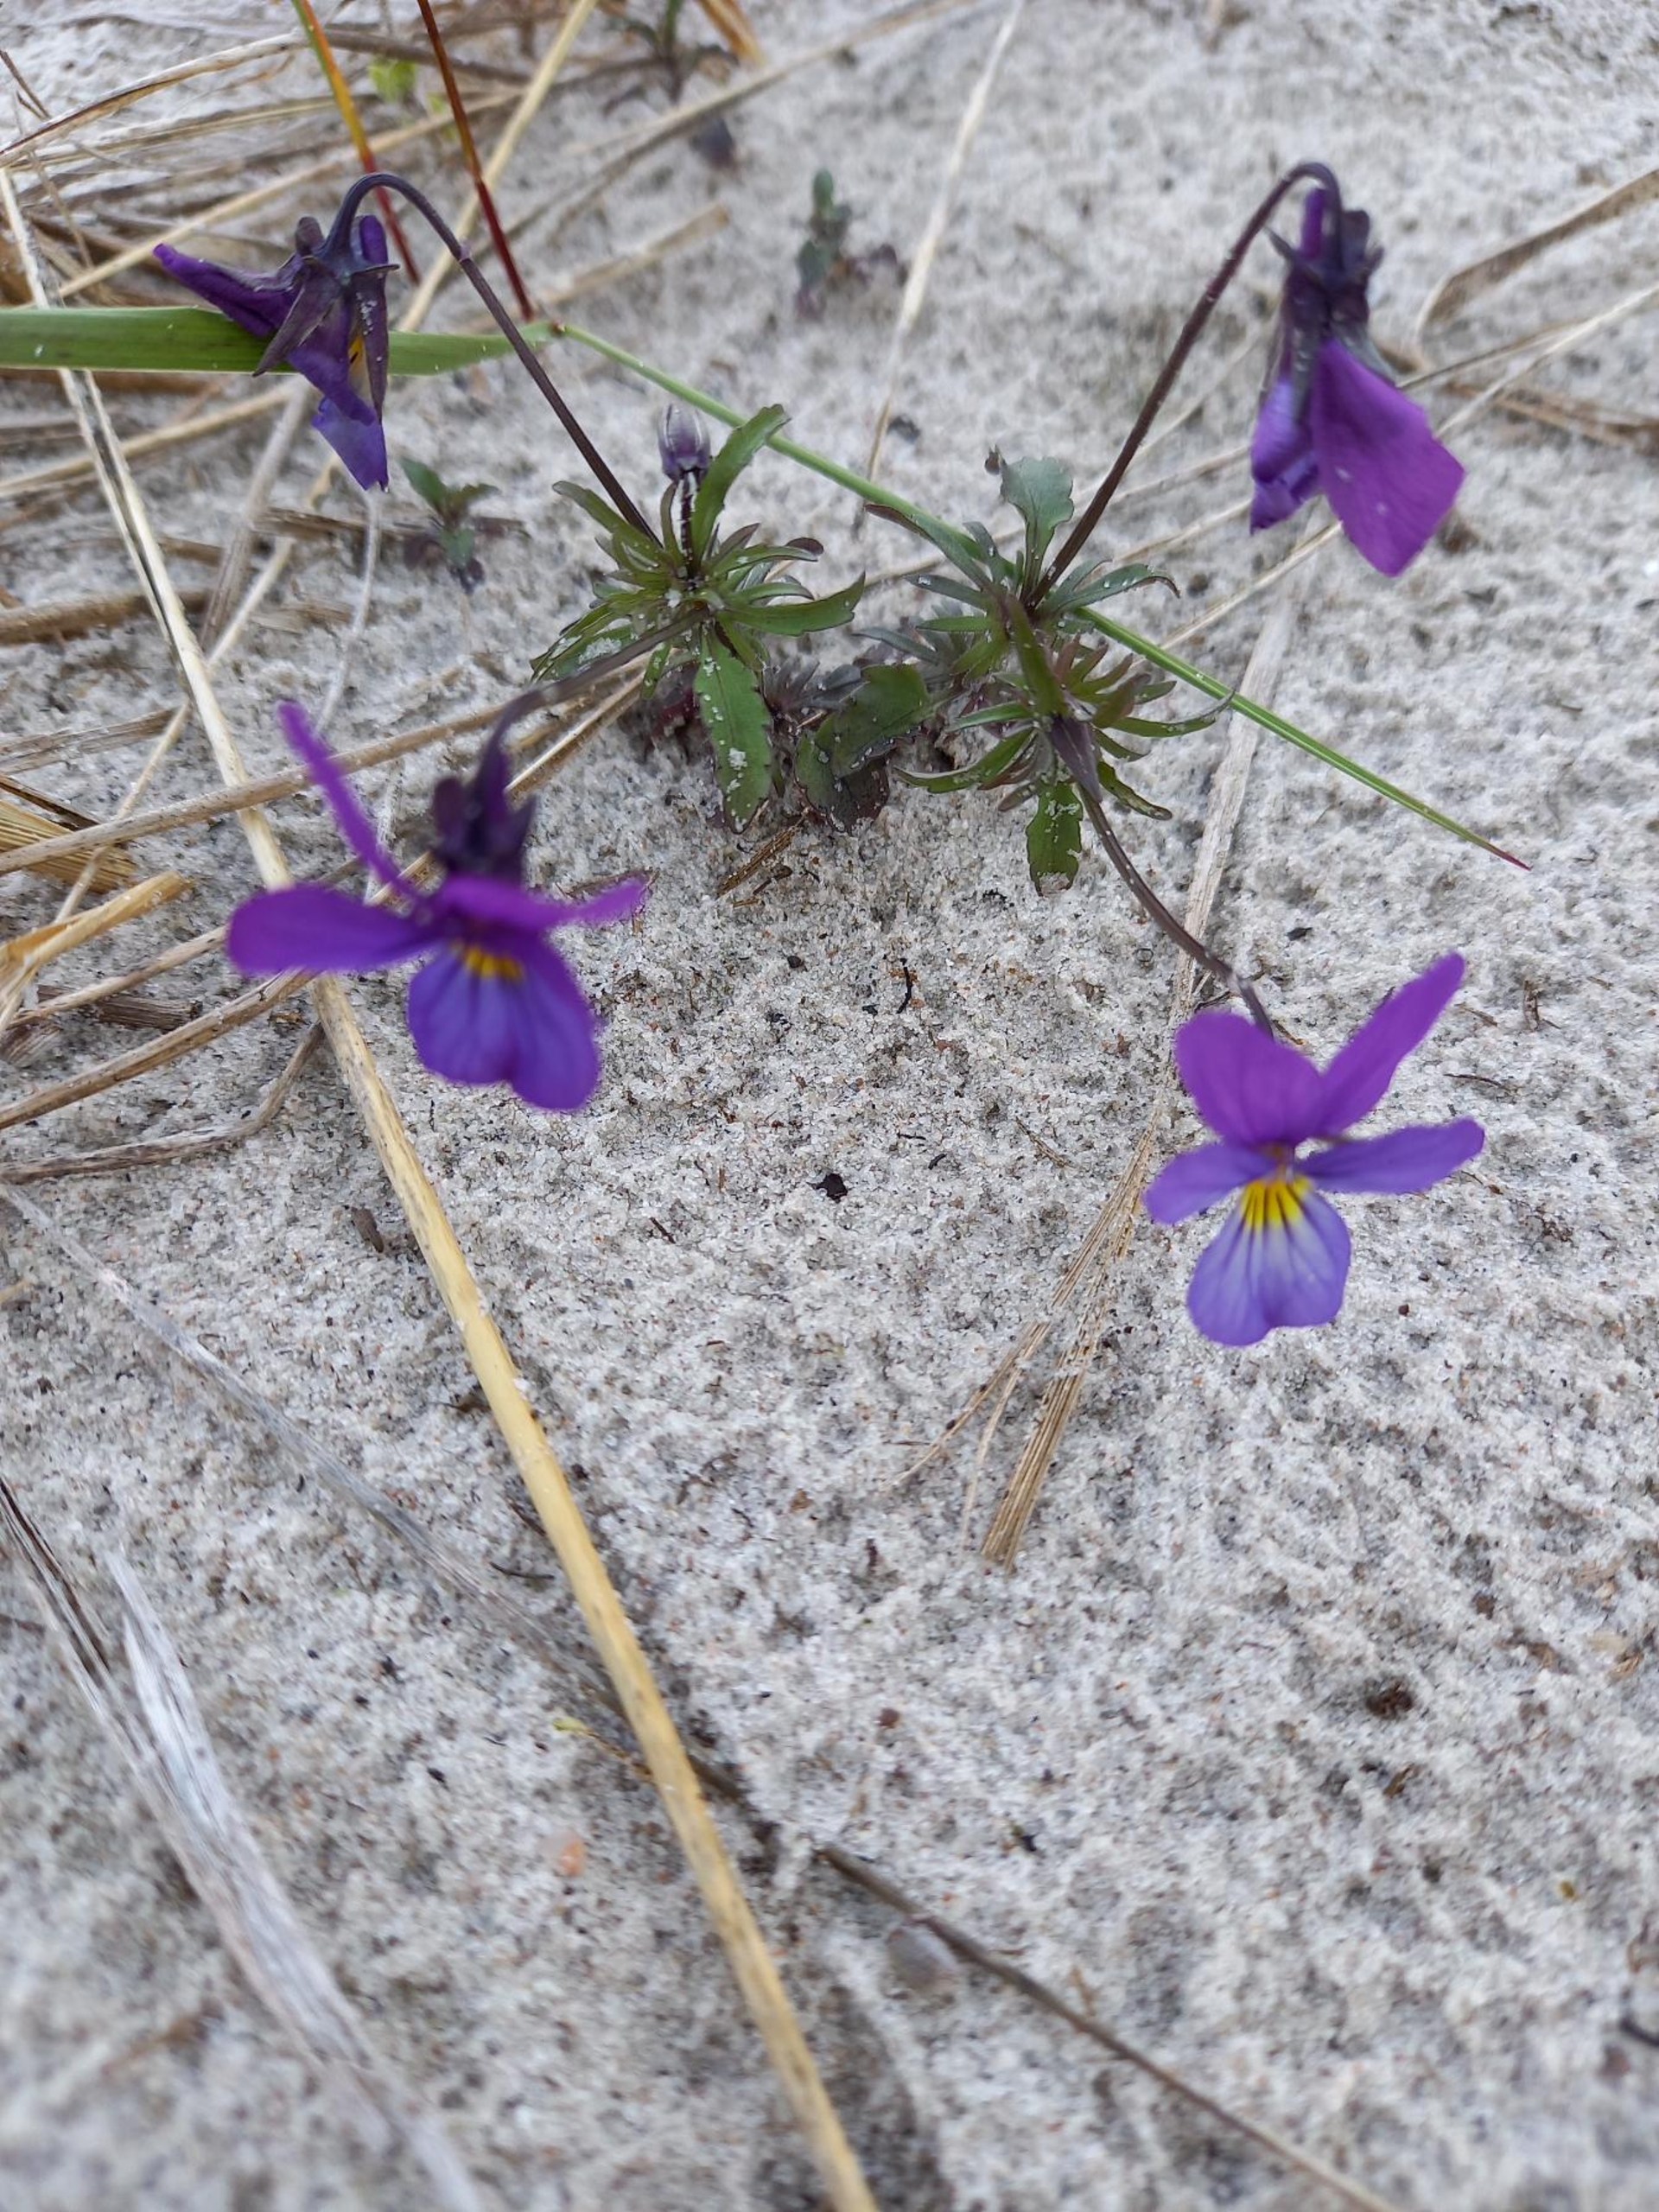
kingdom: Plantae
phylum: Tracheophyta
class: Magnoliopsida
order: Malpighiales
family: Violaceae
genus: Viola
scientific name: Viola tricolor
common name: Stedmoderblomst
